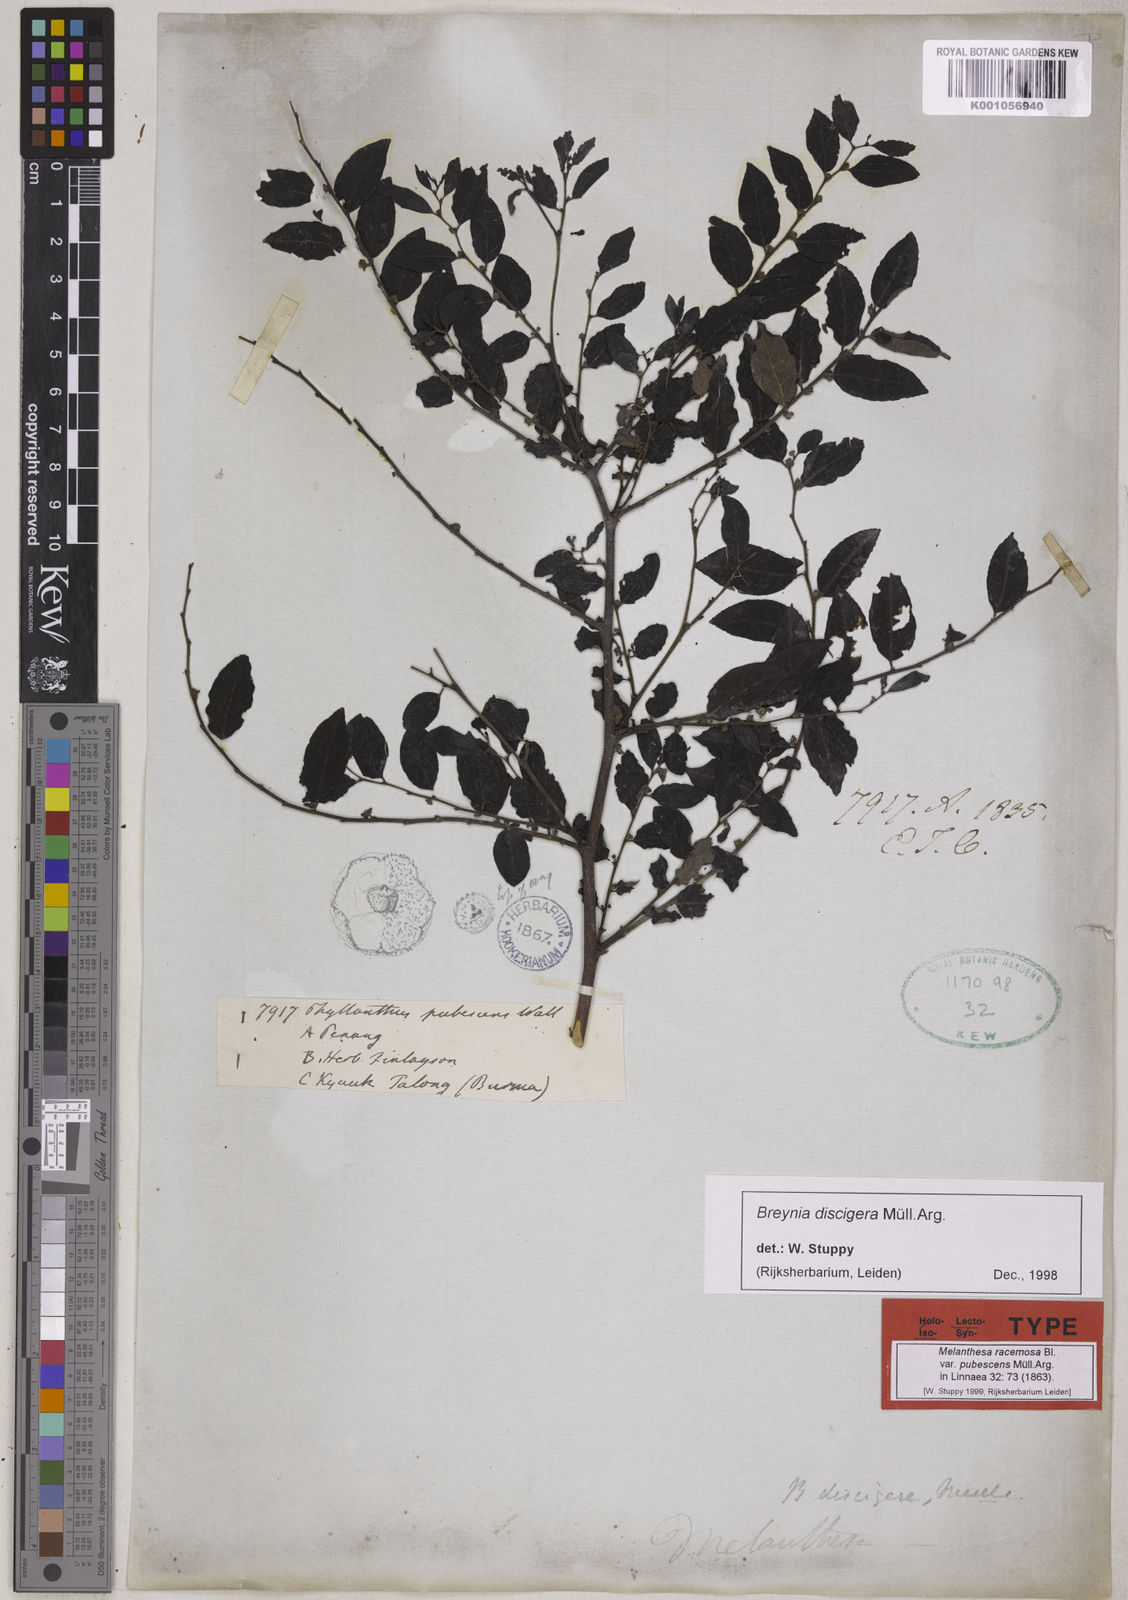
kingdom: Plantae
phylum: Tracheophyta
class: Magnoliopsida
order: Malpighiales
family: Phyllanthaceae
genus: Breynia
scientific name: Breynia
